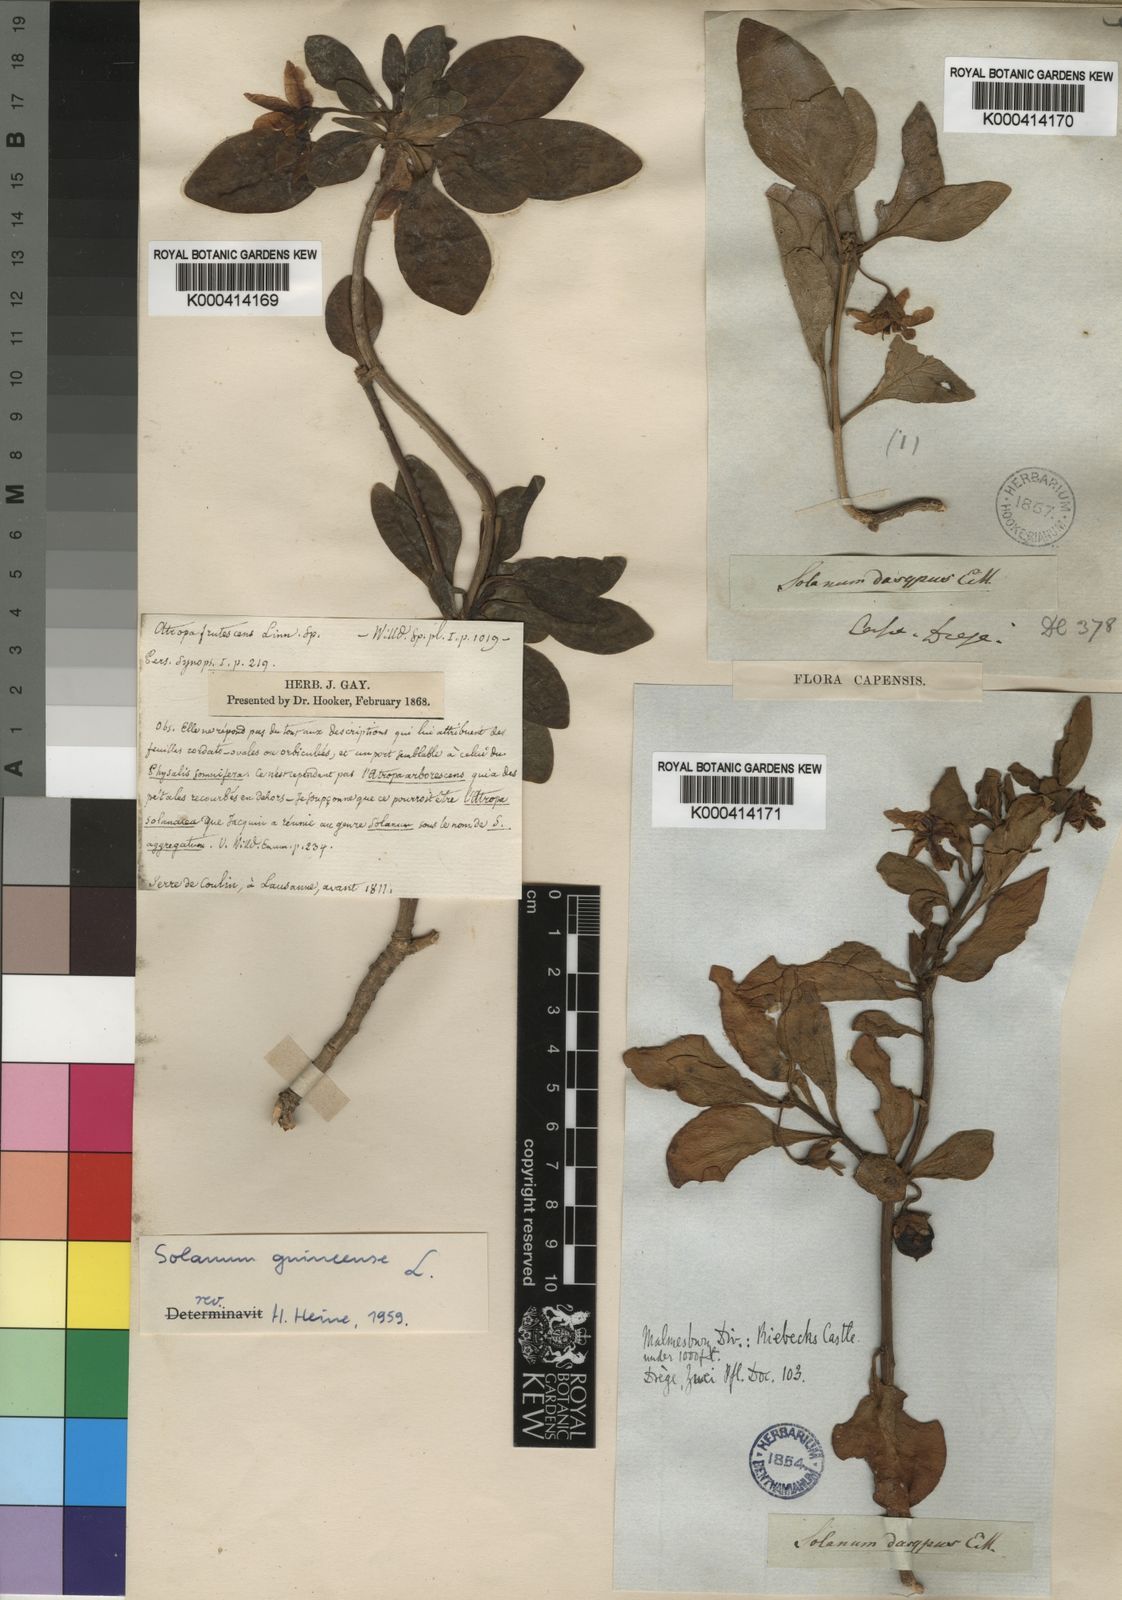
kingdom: Plantae
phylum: Tracheophyta
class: Magnoliopsida
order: Solanales
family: Solanaceae
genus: Solanum
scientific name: Solanum guineense
